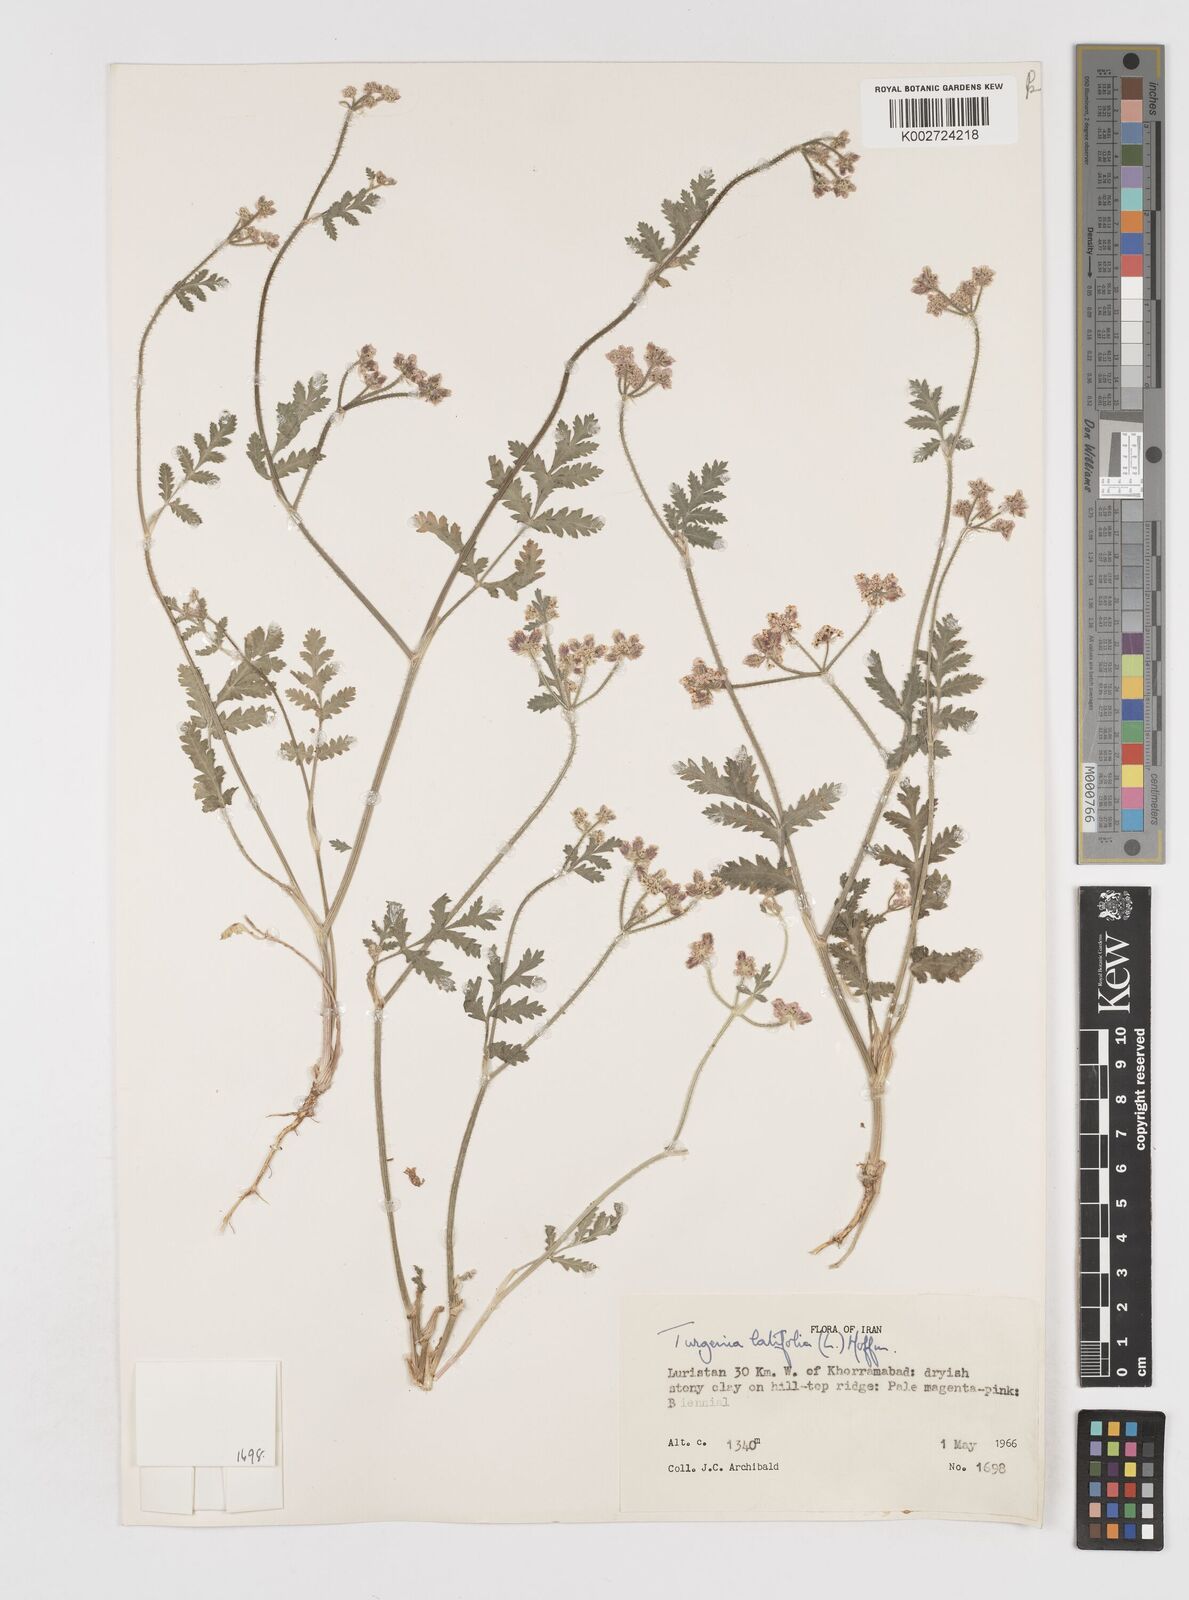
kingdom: Plantae
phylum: Tracheophyta
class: Magnoliopsida
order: Apiales
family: Apiaceae
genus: Turgenia
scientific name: Turgenia latifolia
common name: Greater bur-parsley
